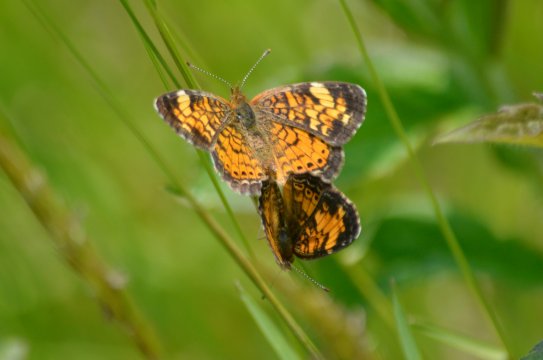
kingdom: Animalia
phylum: Arthropoda
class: Insecta
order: Lepidoptera
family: Nymphalidae
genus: Phyciodes
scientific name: Phyciodes
